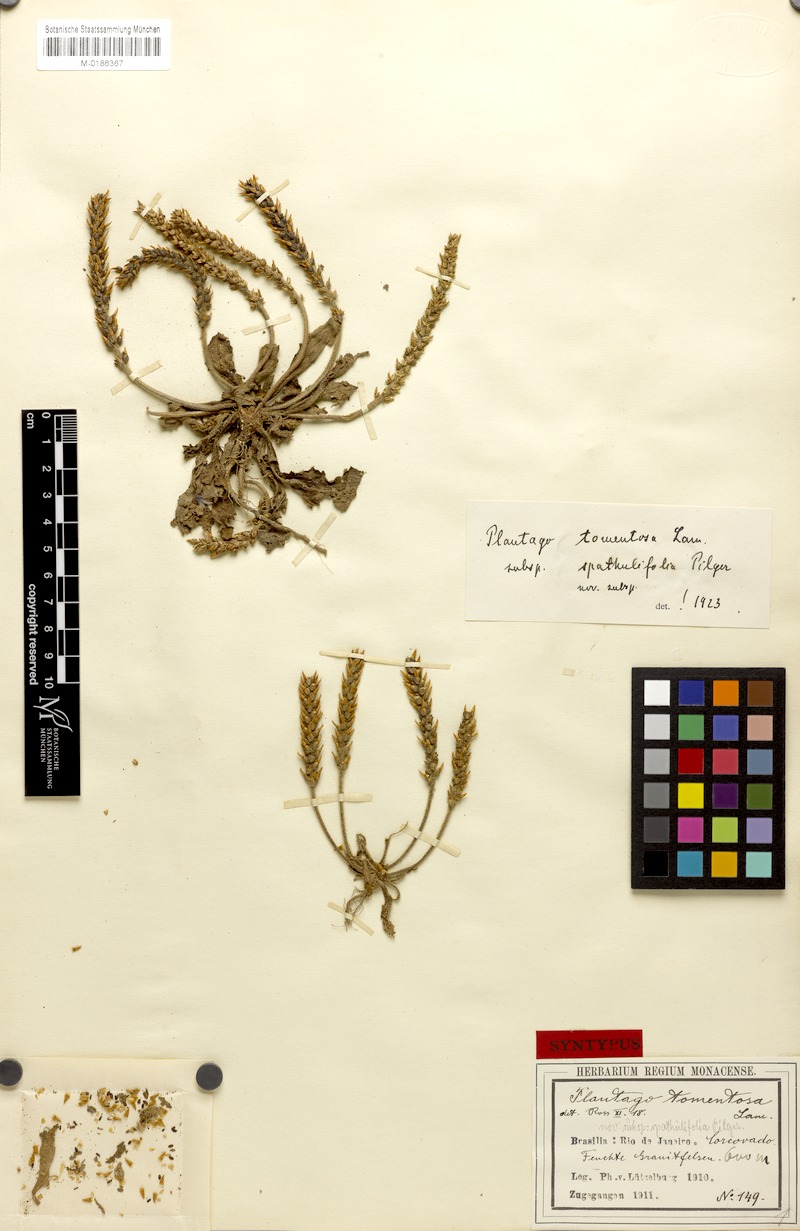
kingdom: Plantae
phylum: Tracheophyta
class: Magnoliopsida
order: Lamiales
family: Plantaginaceae
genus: Plantago
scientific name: Plantago catharinea
